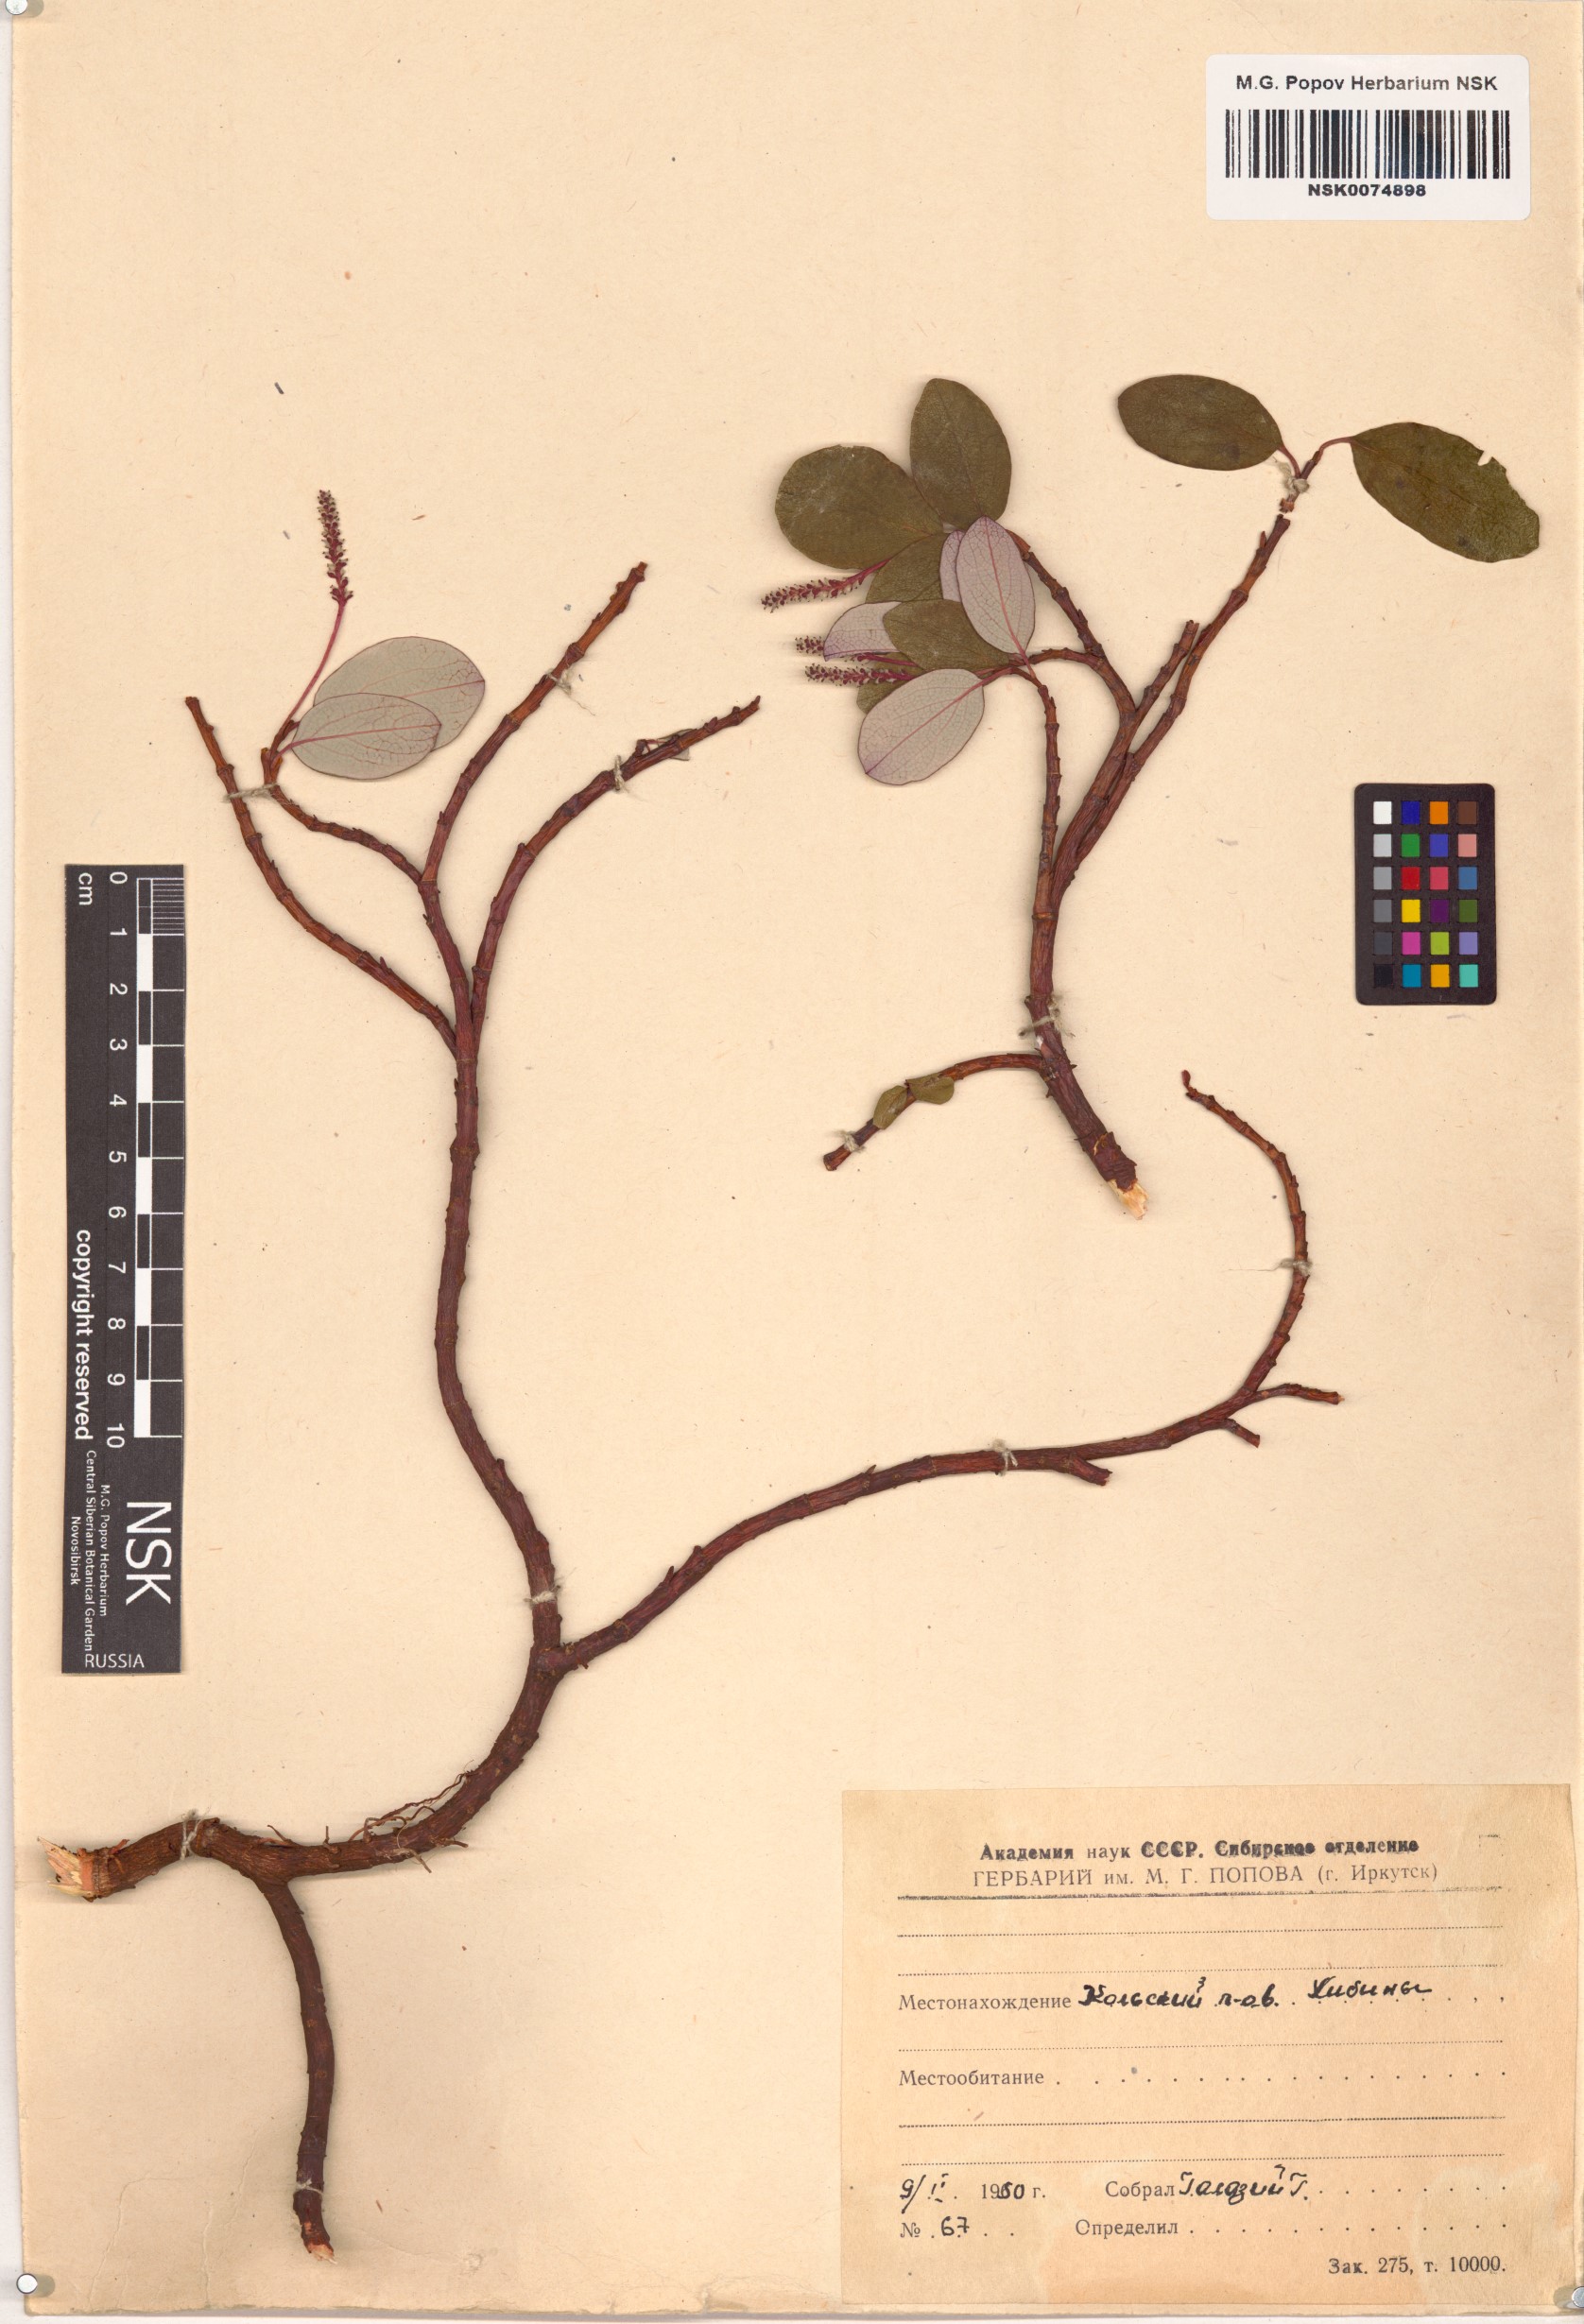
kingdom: Plantae
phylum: Tracheophyta
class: Magnoliopsida
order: Malpighiales
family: Salicaceae
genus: Salix
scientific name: Salix ovalifolia
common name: Arctic seashore willow
